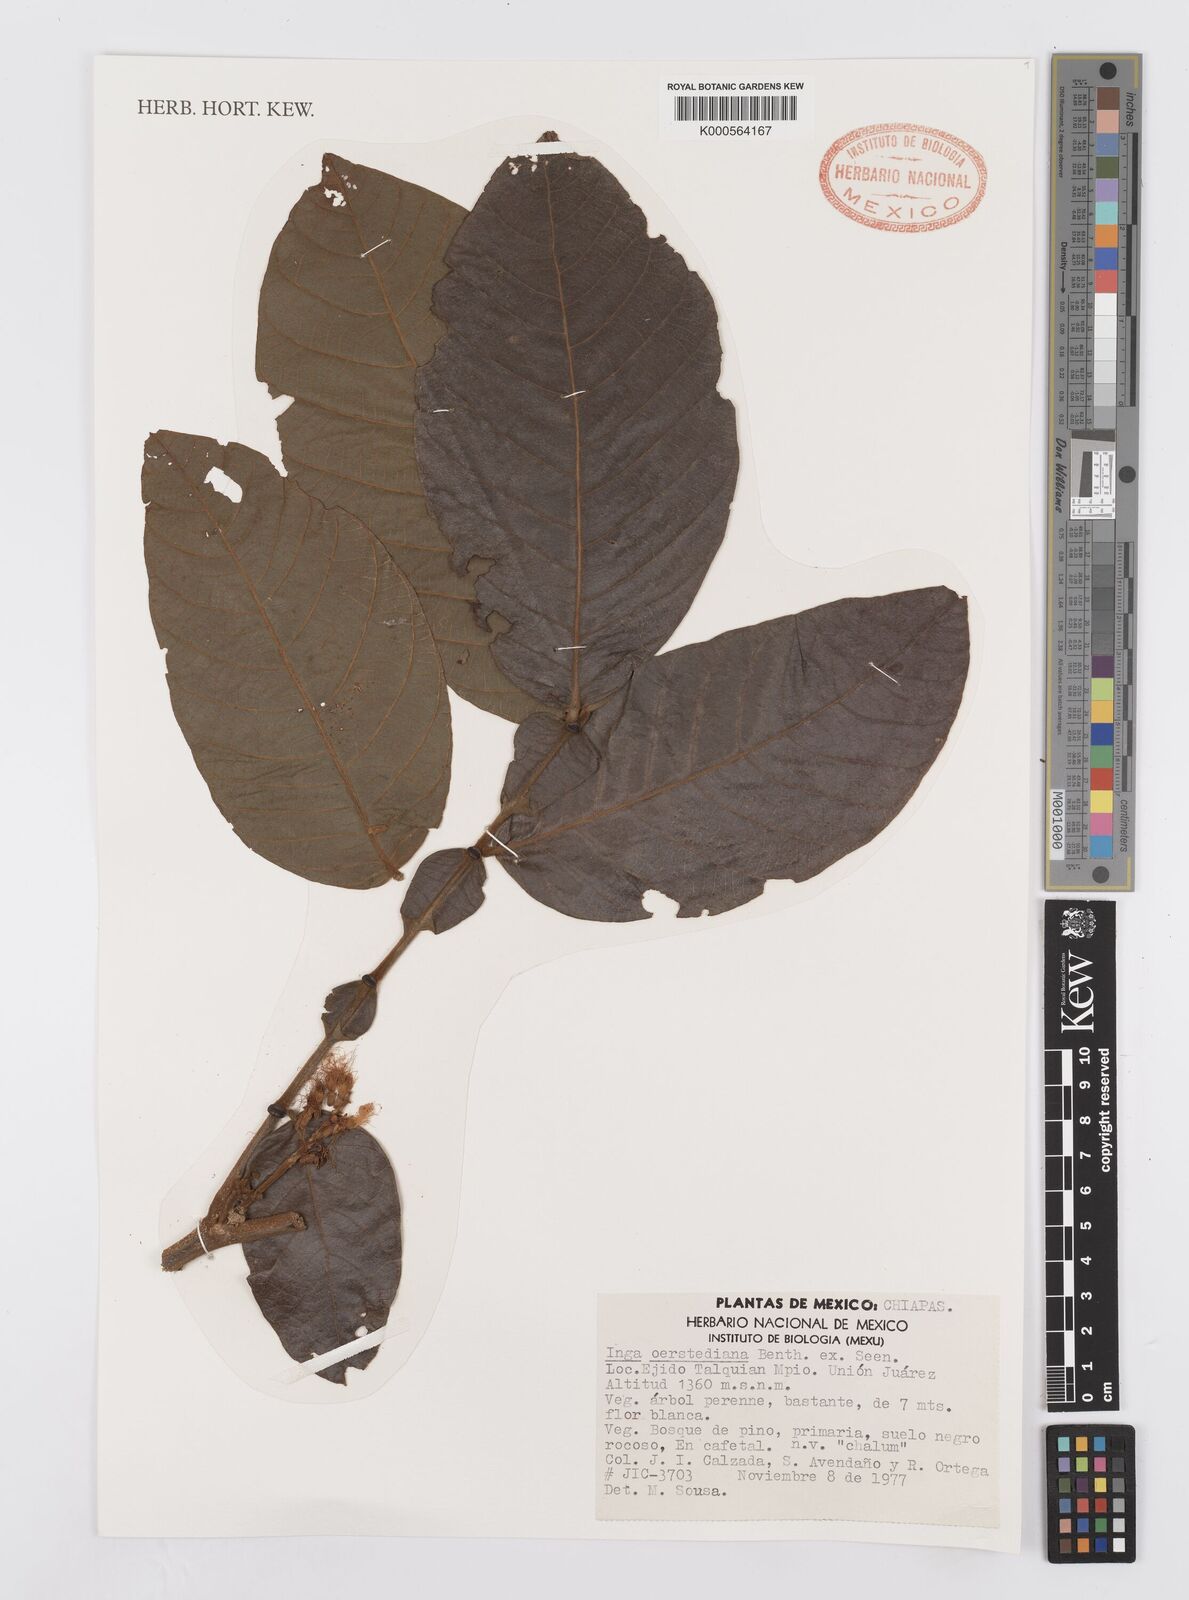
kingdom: Plantae
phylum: Tracheophyta
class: Magnoliopsida
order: Fabales
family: Fabaceae
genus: Inga
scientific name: Inga oerstediana
